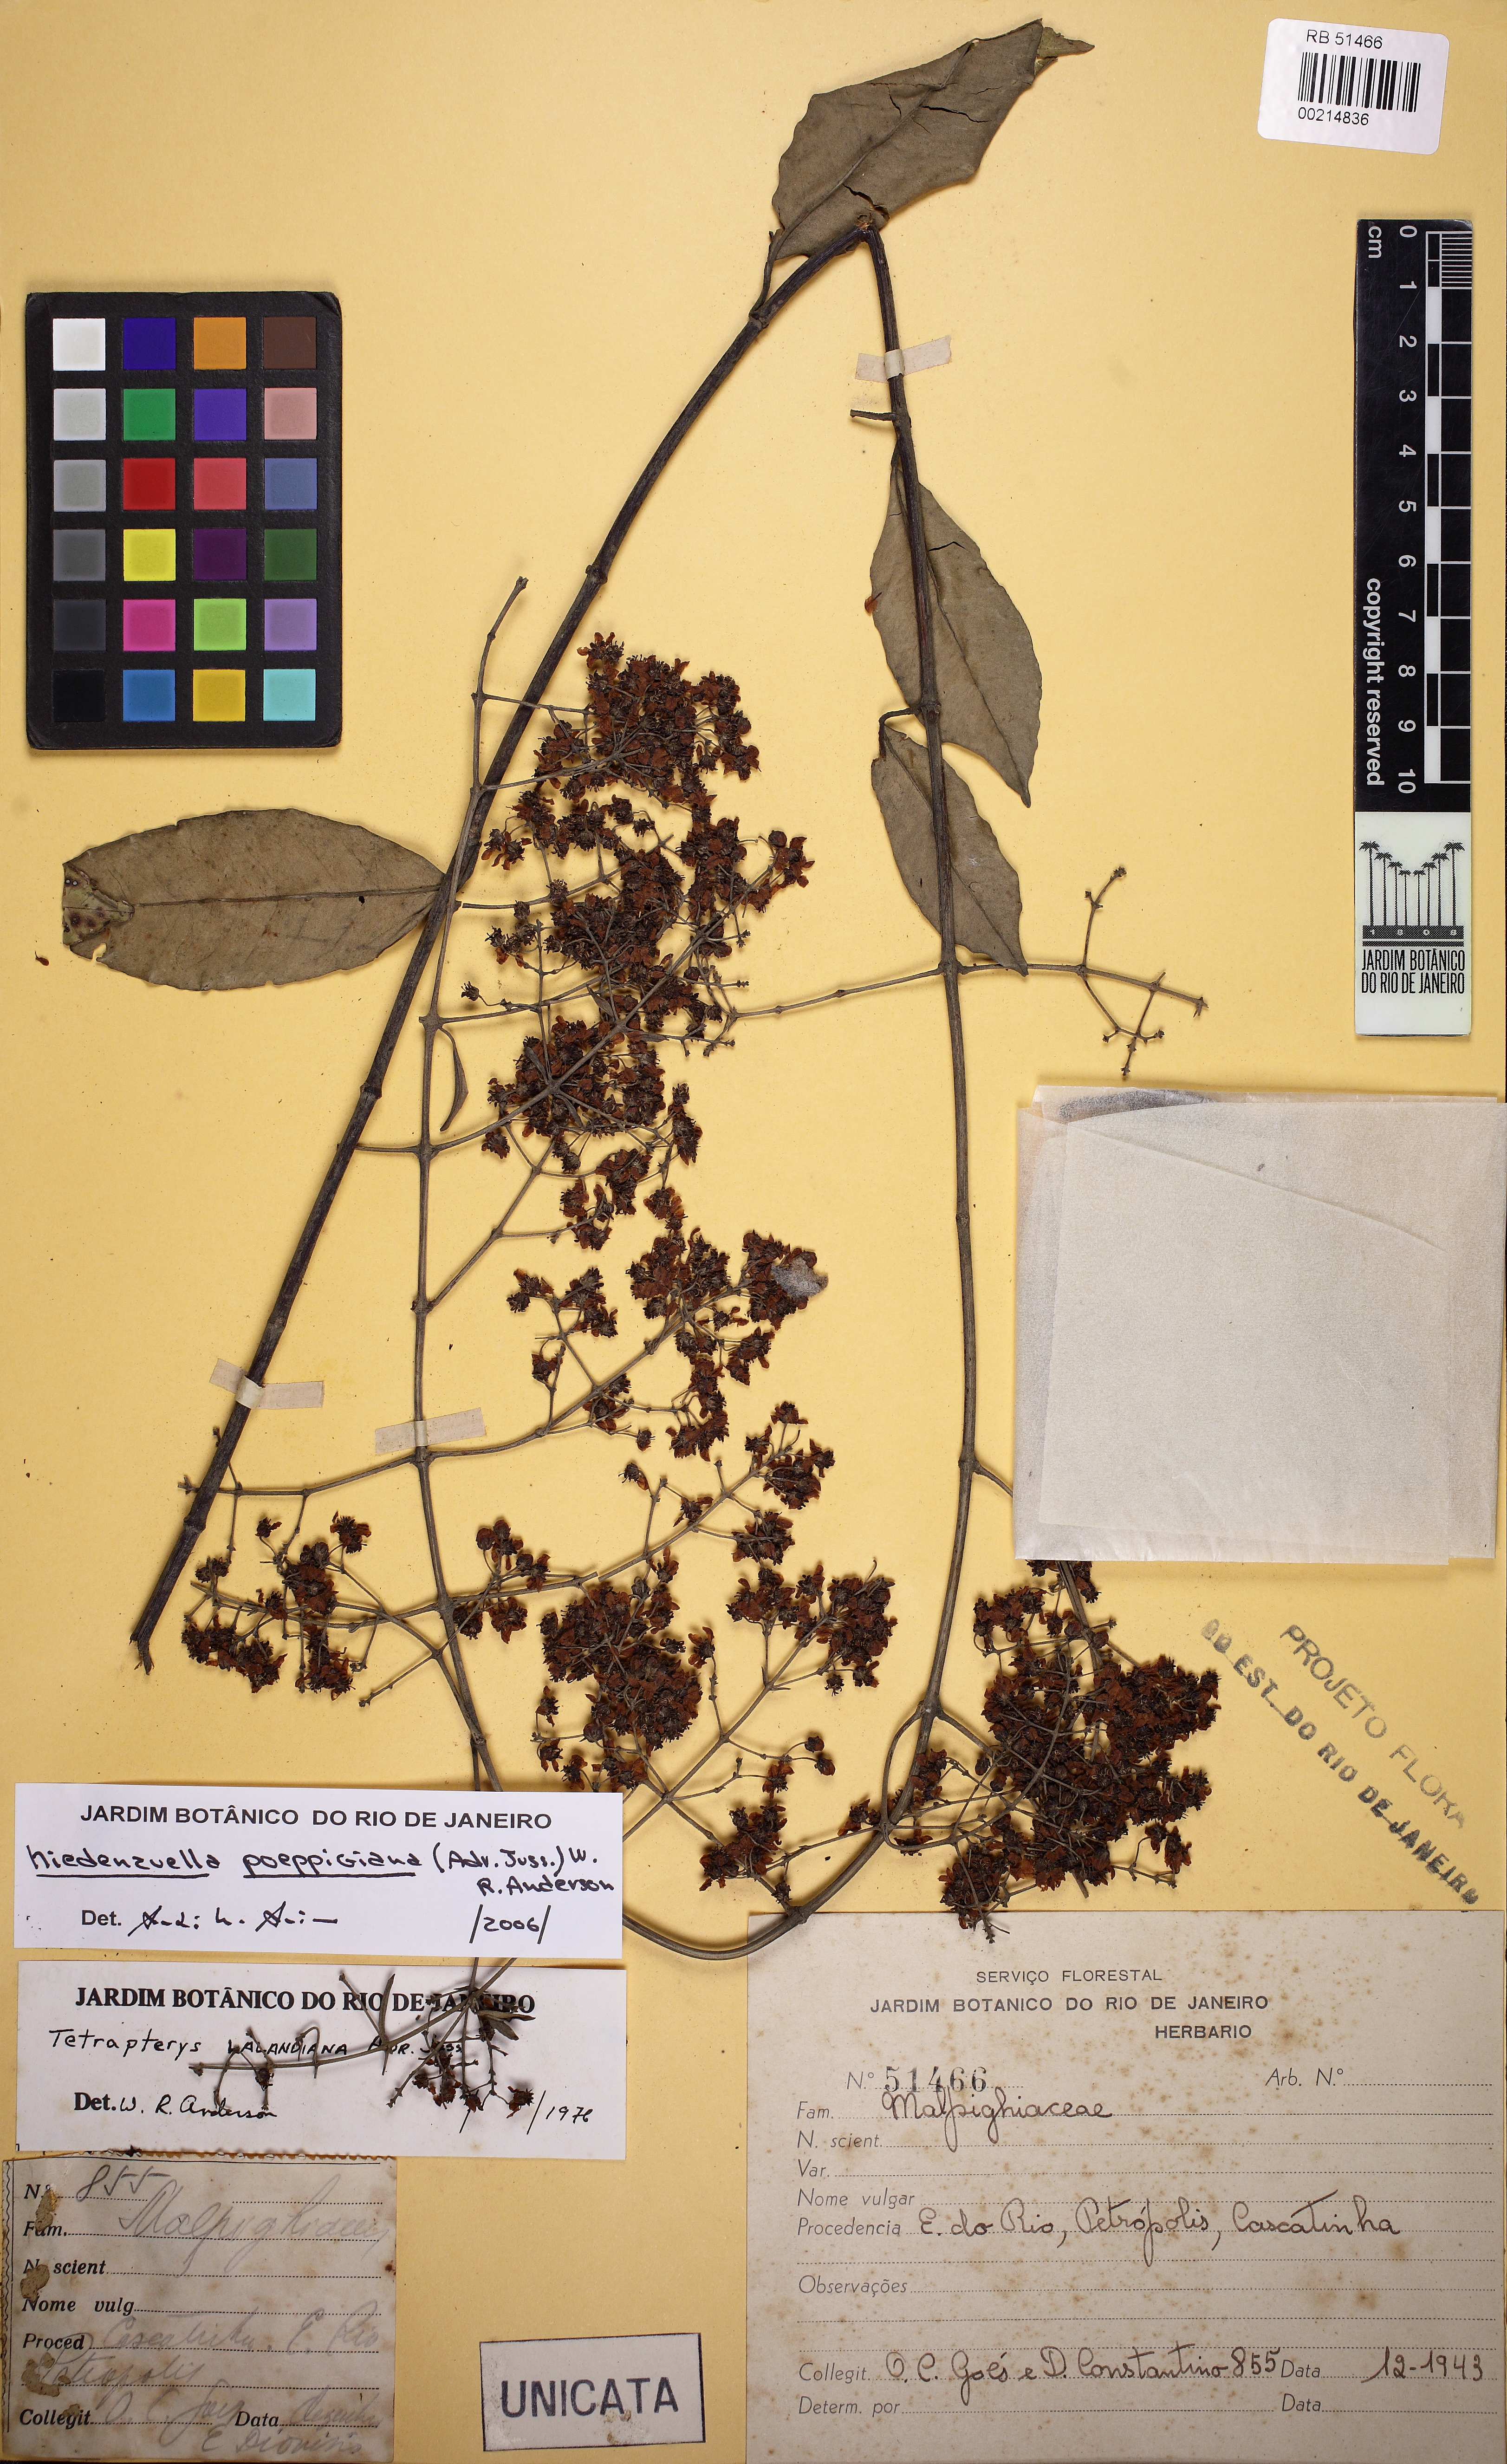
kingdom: Plantae
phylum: Tracheophyta
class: Magnoliopsida
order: Malpighiales
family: Malpighiaceae
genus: Niedenzuella
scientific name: Niedenzuella poeppigiana
